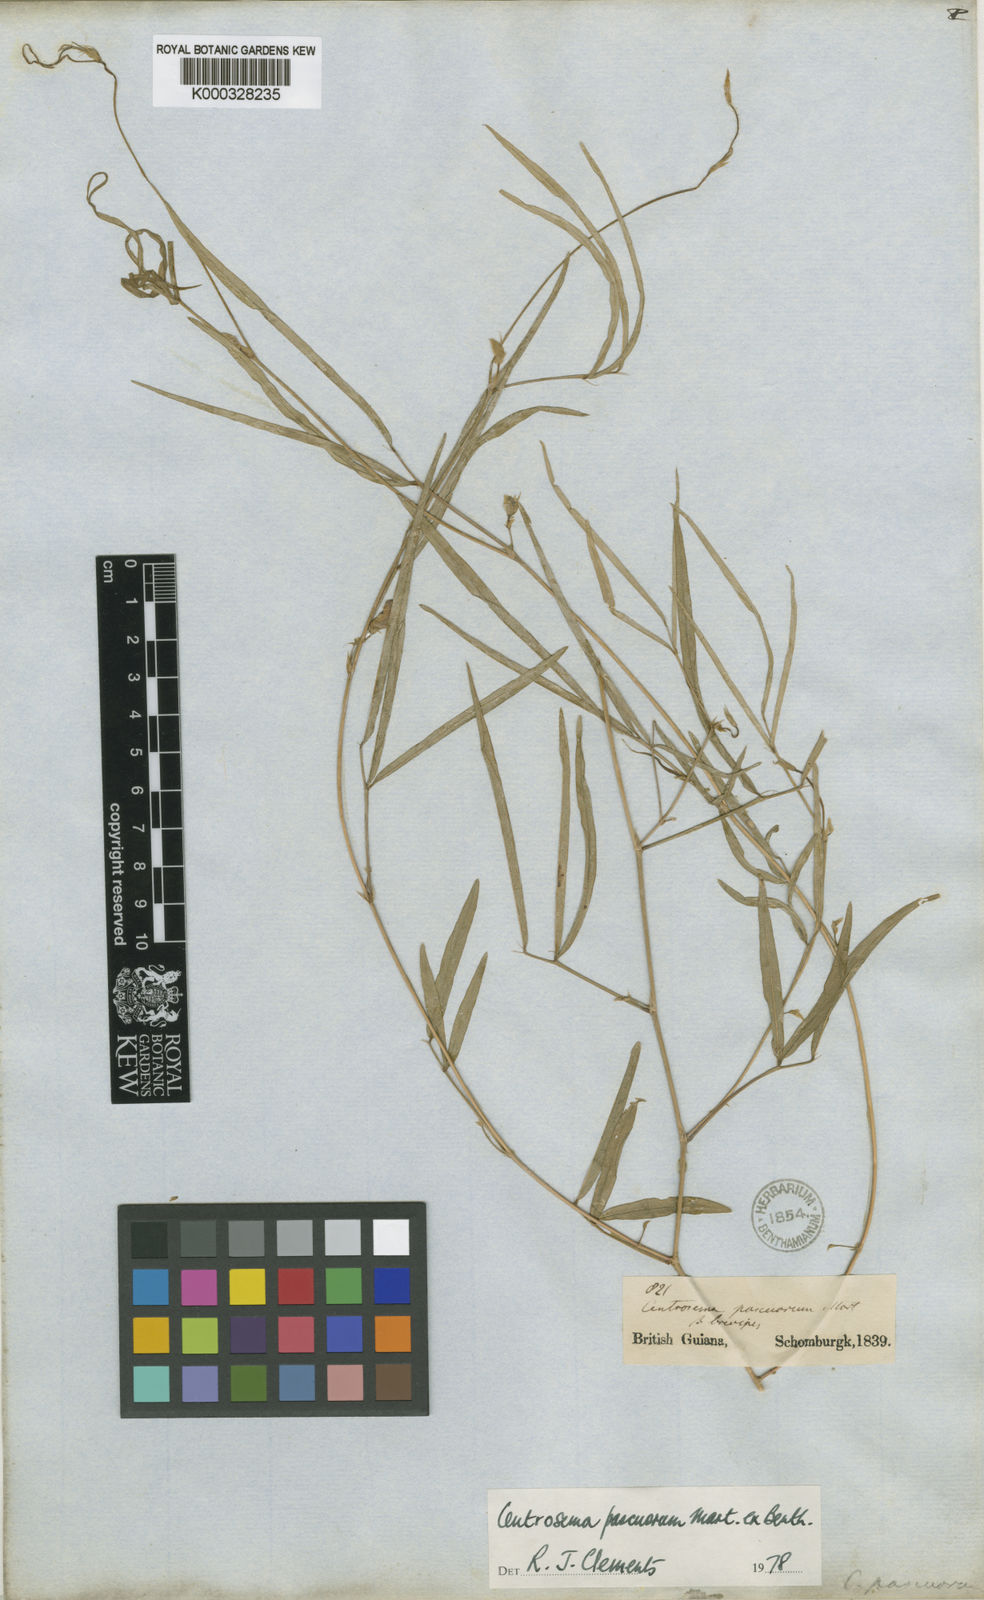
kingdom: Plantae
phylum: Tracheophyta
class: Magnoliopsida
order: Fabales
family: Fabaceae
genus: Centrosema
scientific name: Centrosema pascuorum
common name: Centurion
